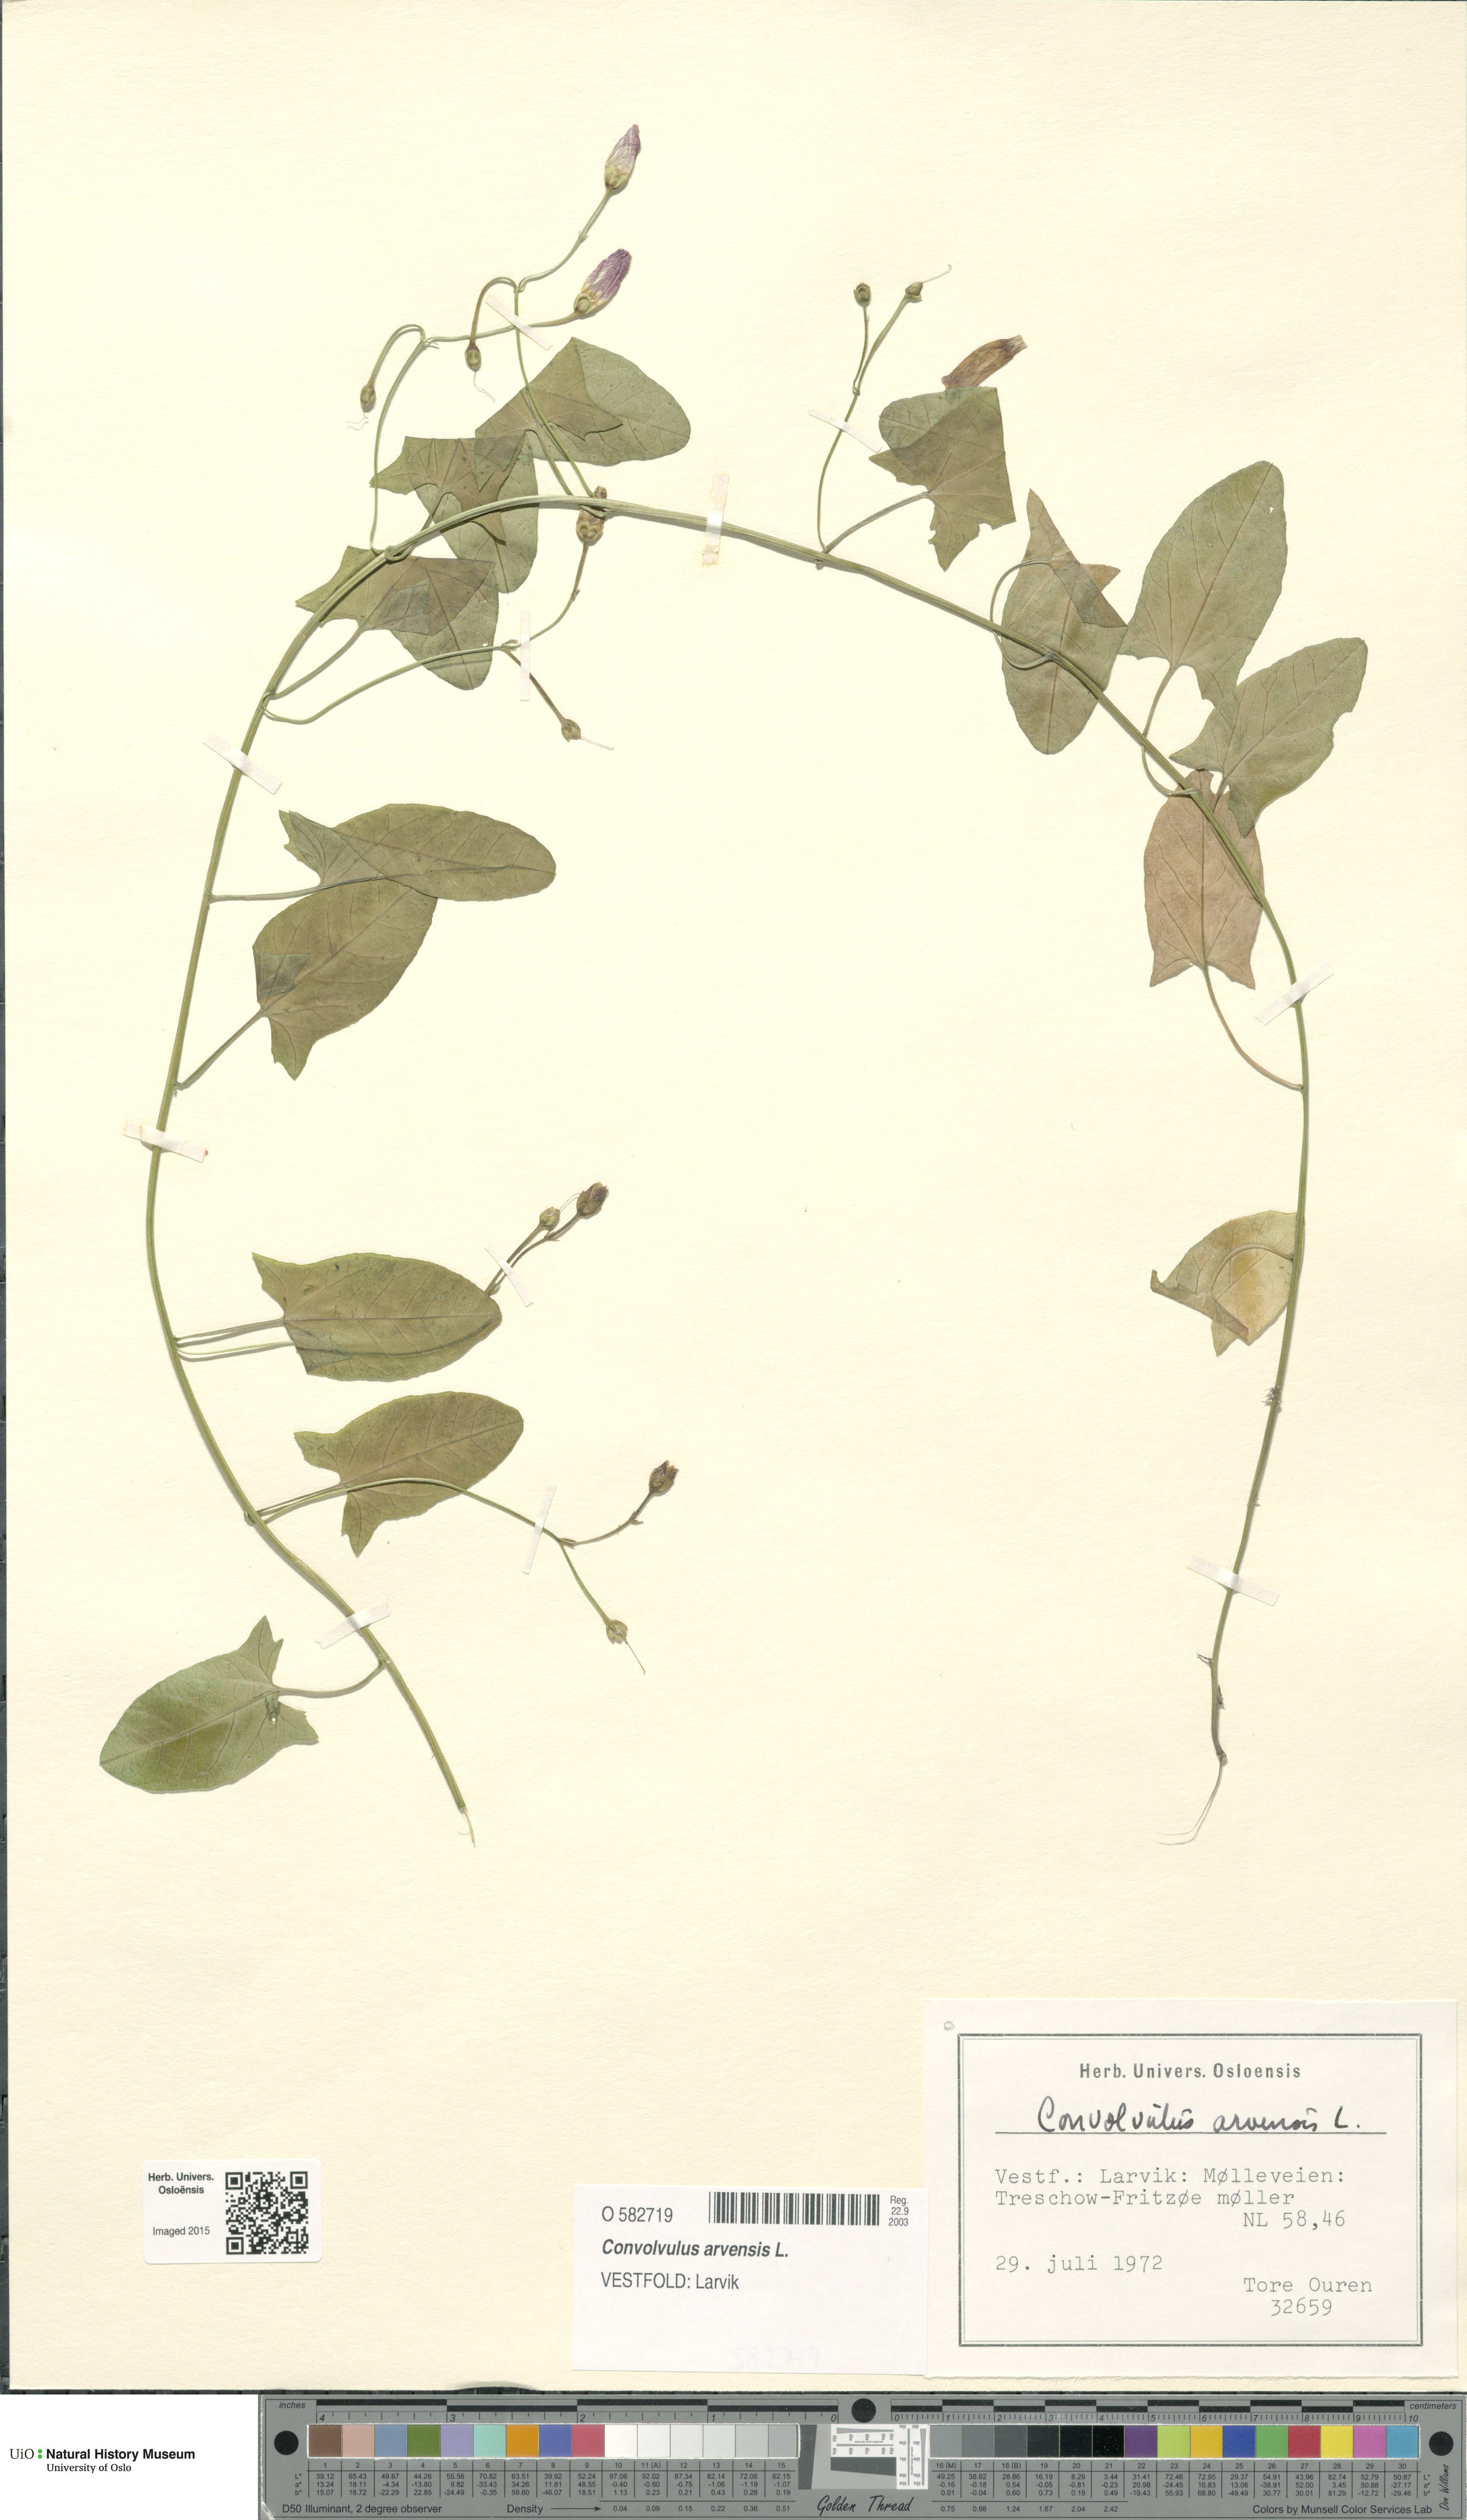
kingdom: Plantae
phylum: Tracheophyta
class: Magnoliopsida
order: Solanales
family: Convolvulaceae
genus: Convolvulus
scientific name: Convolvulus arvensis
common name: Field bindweed
